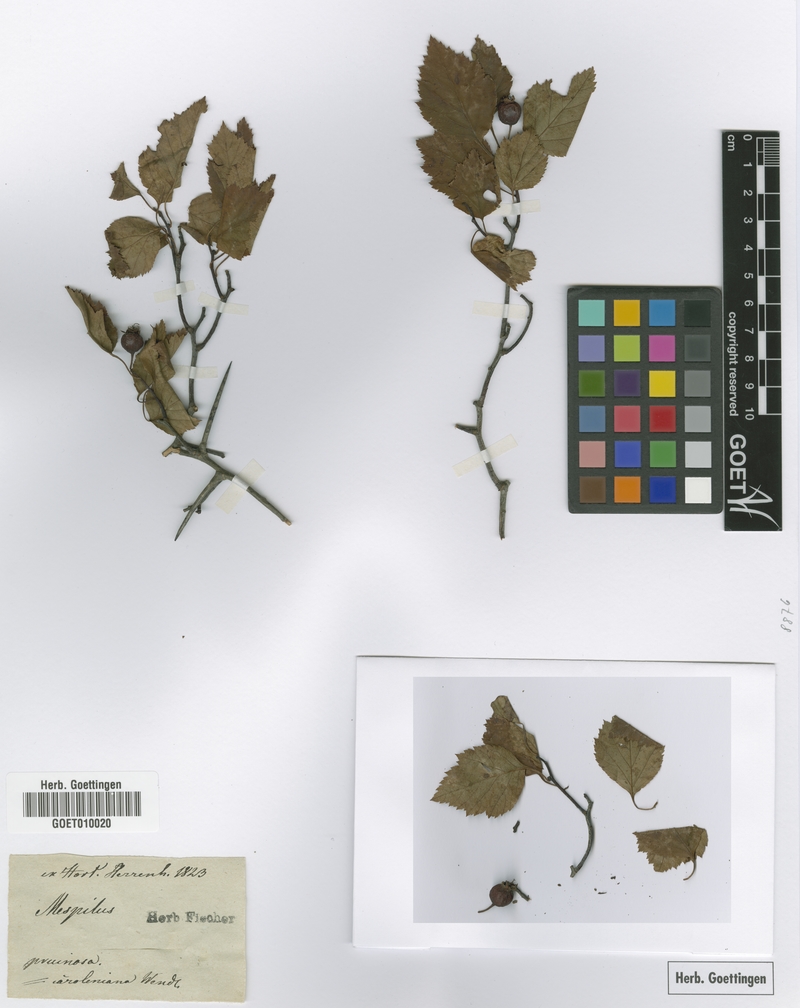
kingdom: Plantae
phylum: Tracheophyta
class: Magnoliopsida
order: Rosales
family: Rosaceae
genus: Crataegus
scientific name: Crataegus pruinosa
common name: Waxy-fruit hawthorn
